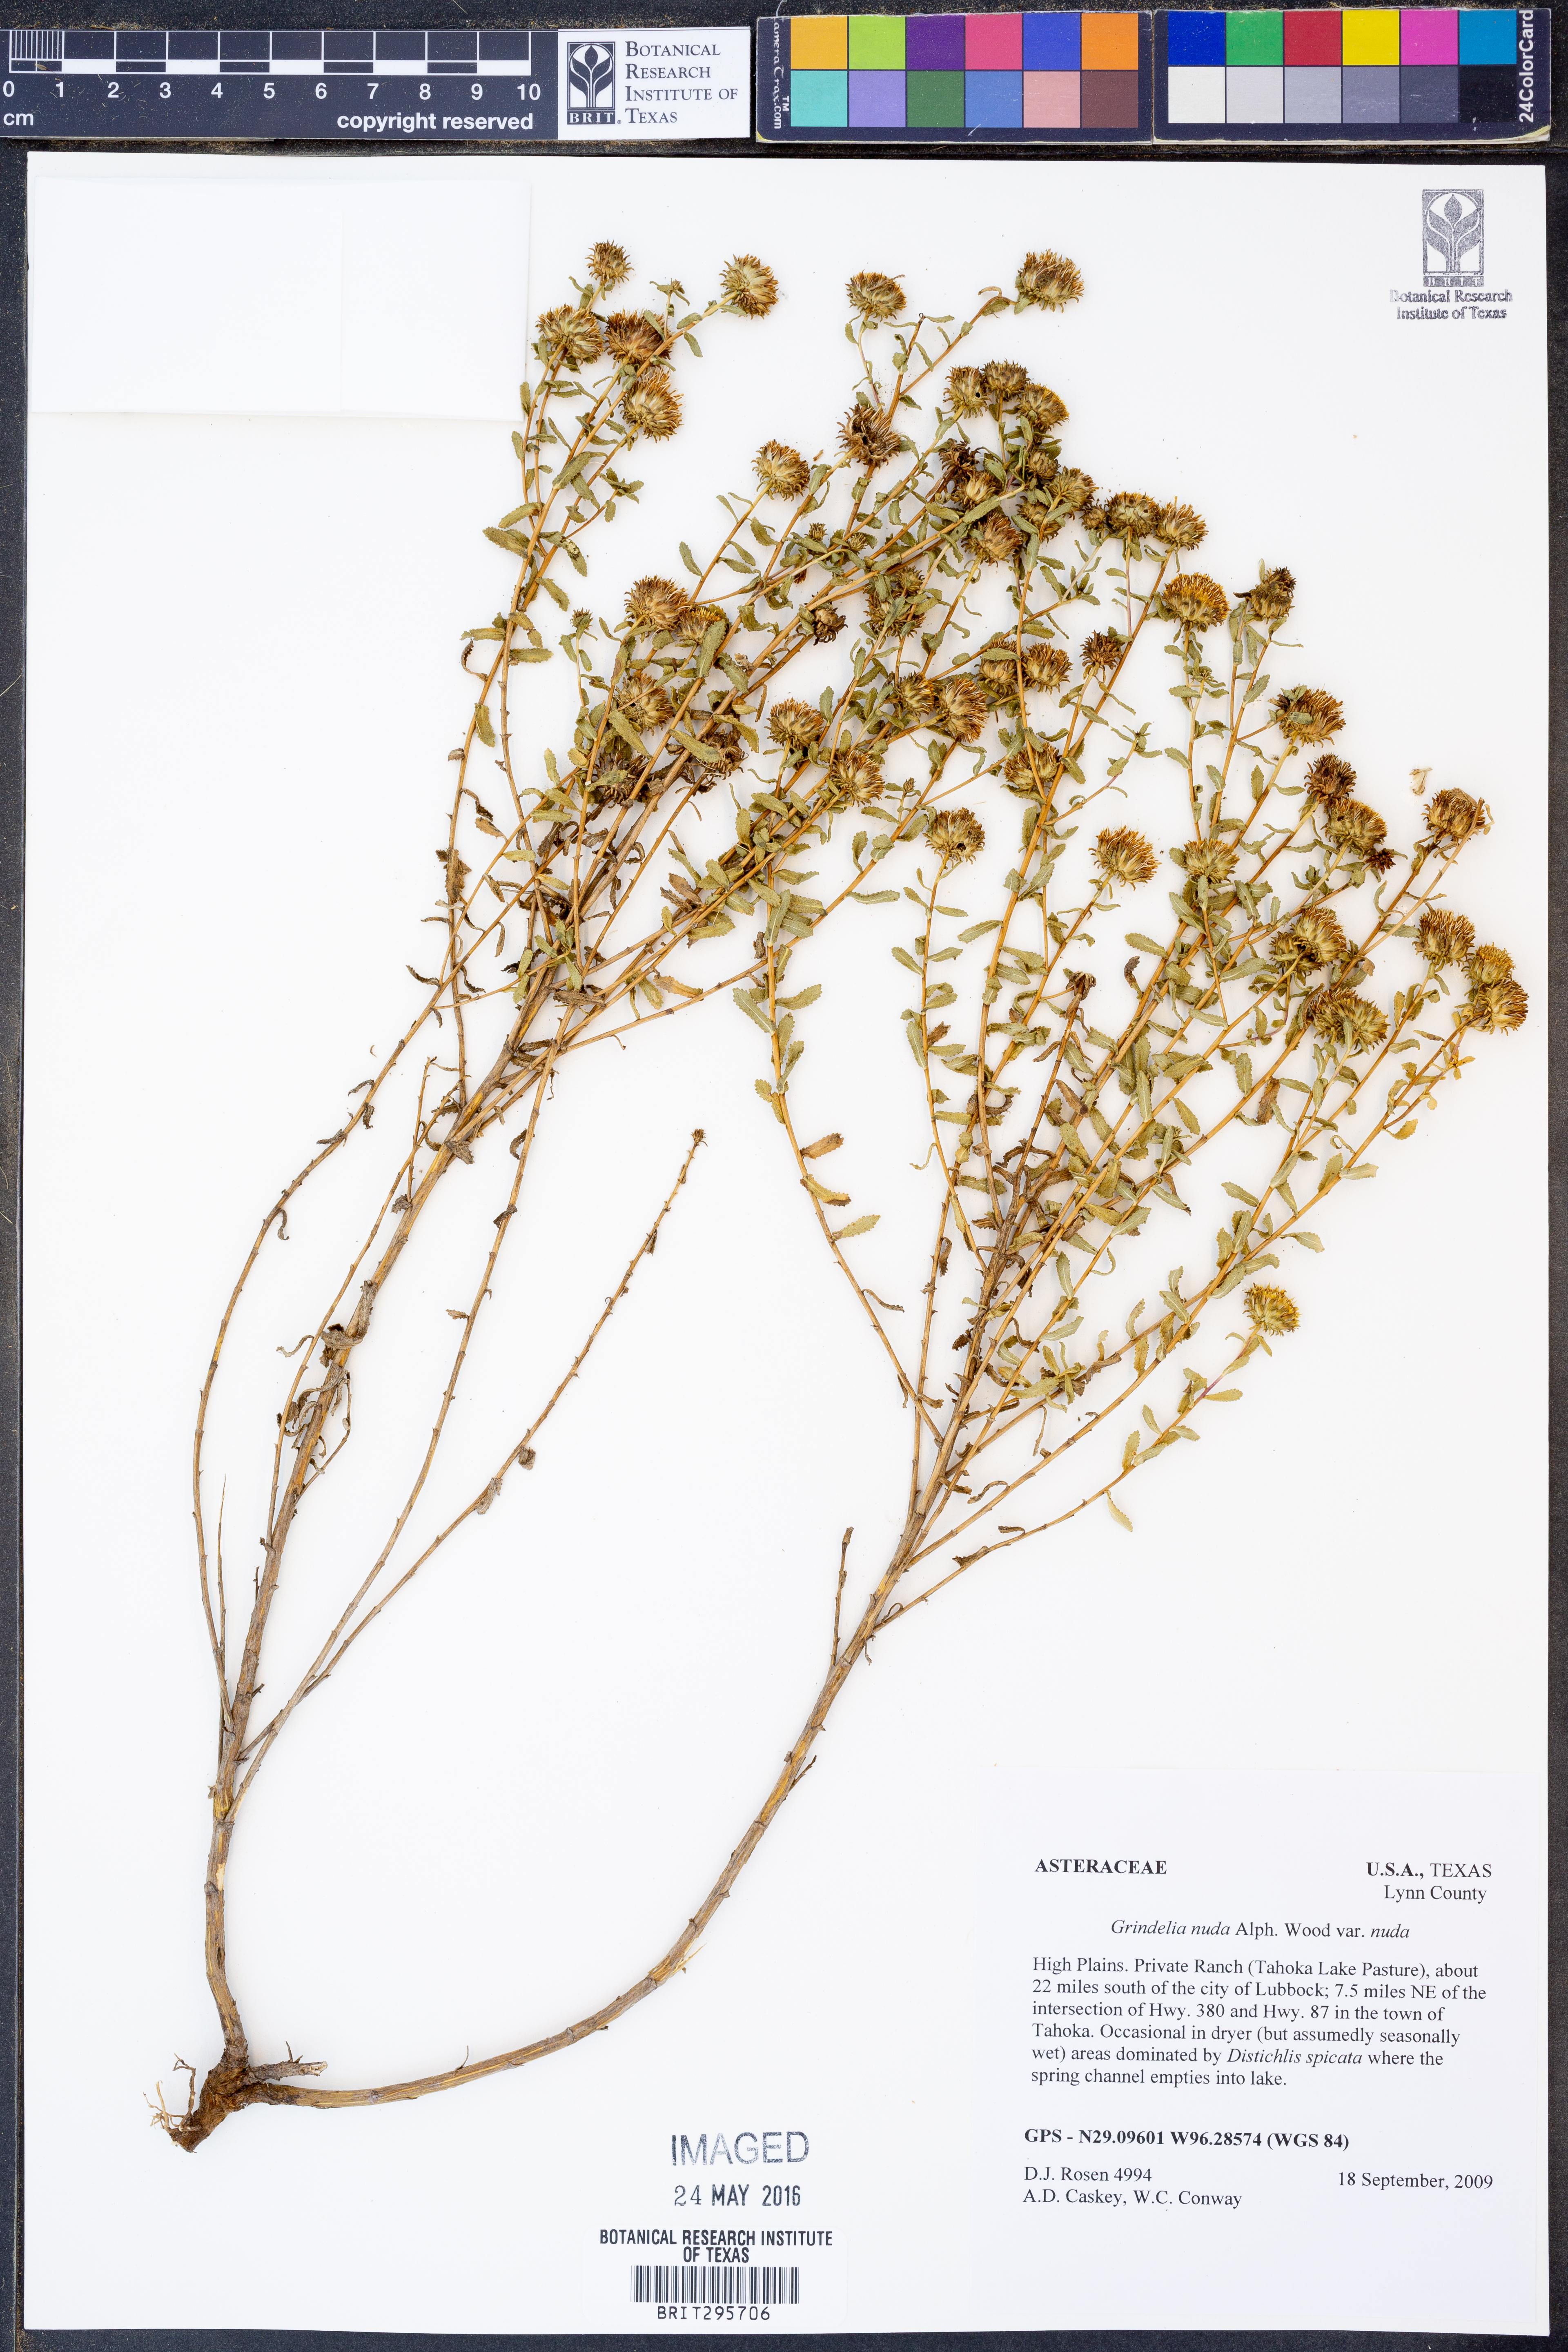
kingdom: Plantae
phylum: Tracheophyta
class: Magnoliopsida
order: Asterales
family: Asteraceae
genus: Grindelia
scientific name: Grindelia nuda
